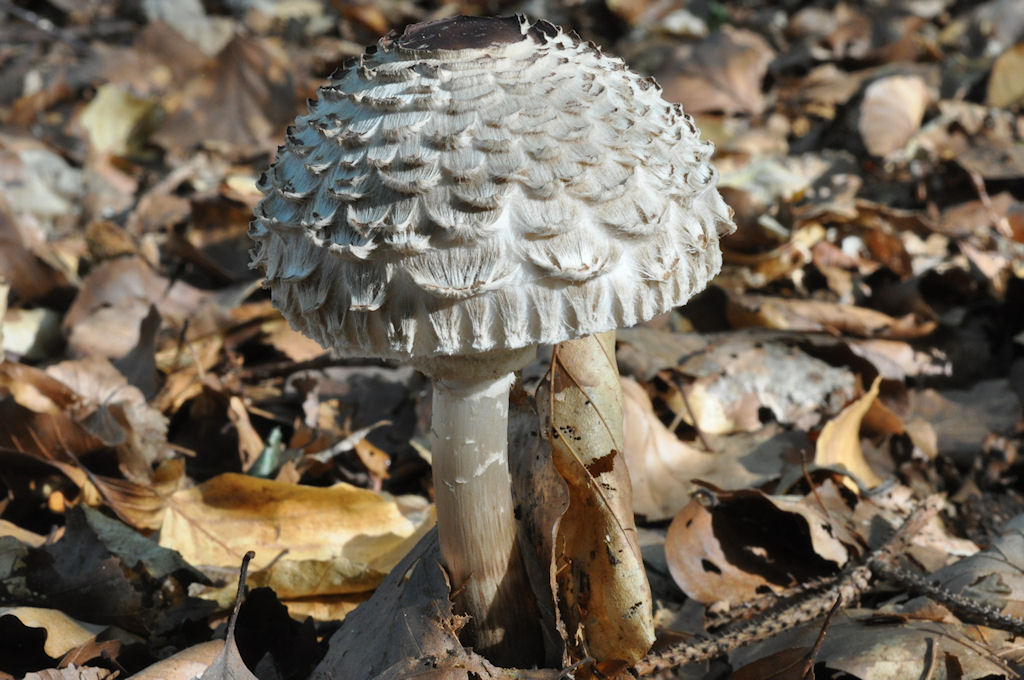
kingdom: Fungi
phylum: Basidiomycota
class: Agaricomycetes
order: Agaricales
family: Agaricaceae
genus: Chlorophyllum
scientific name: Chlorophyllum rhacodes
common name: ægte rabarberhat
